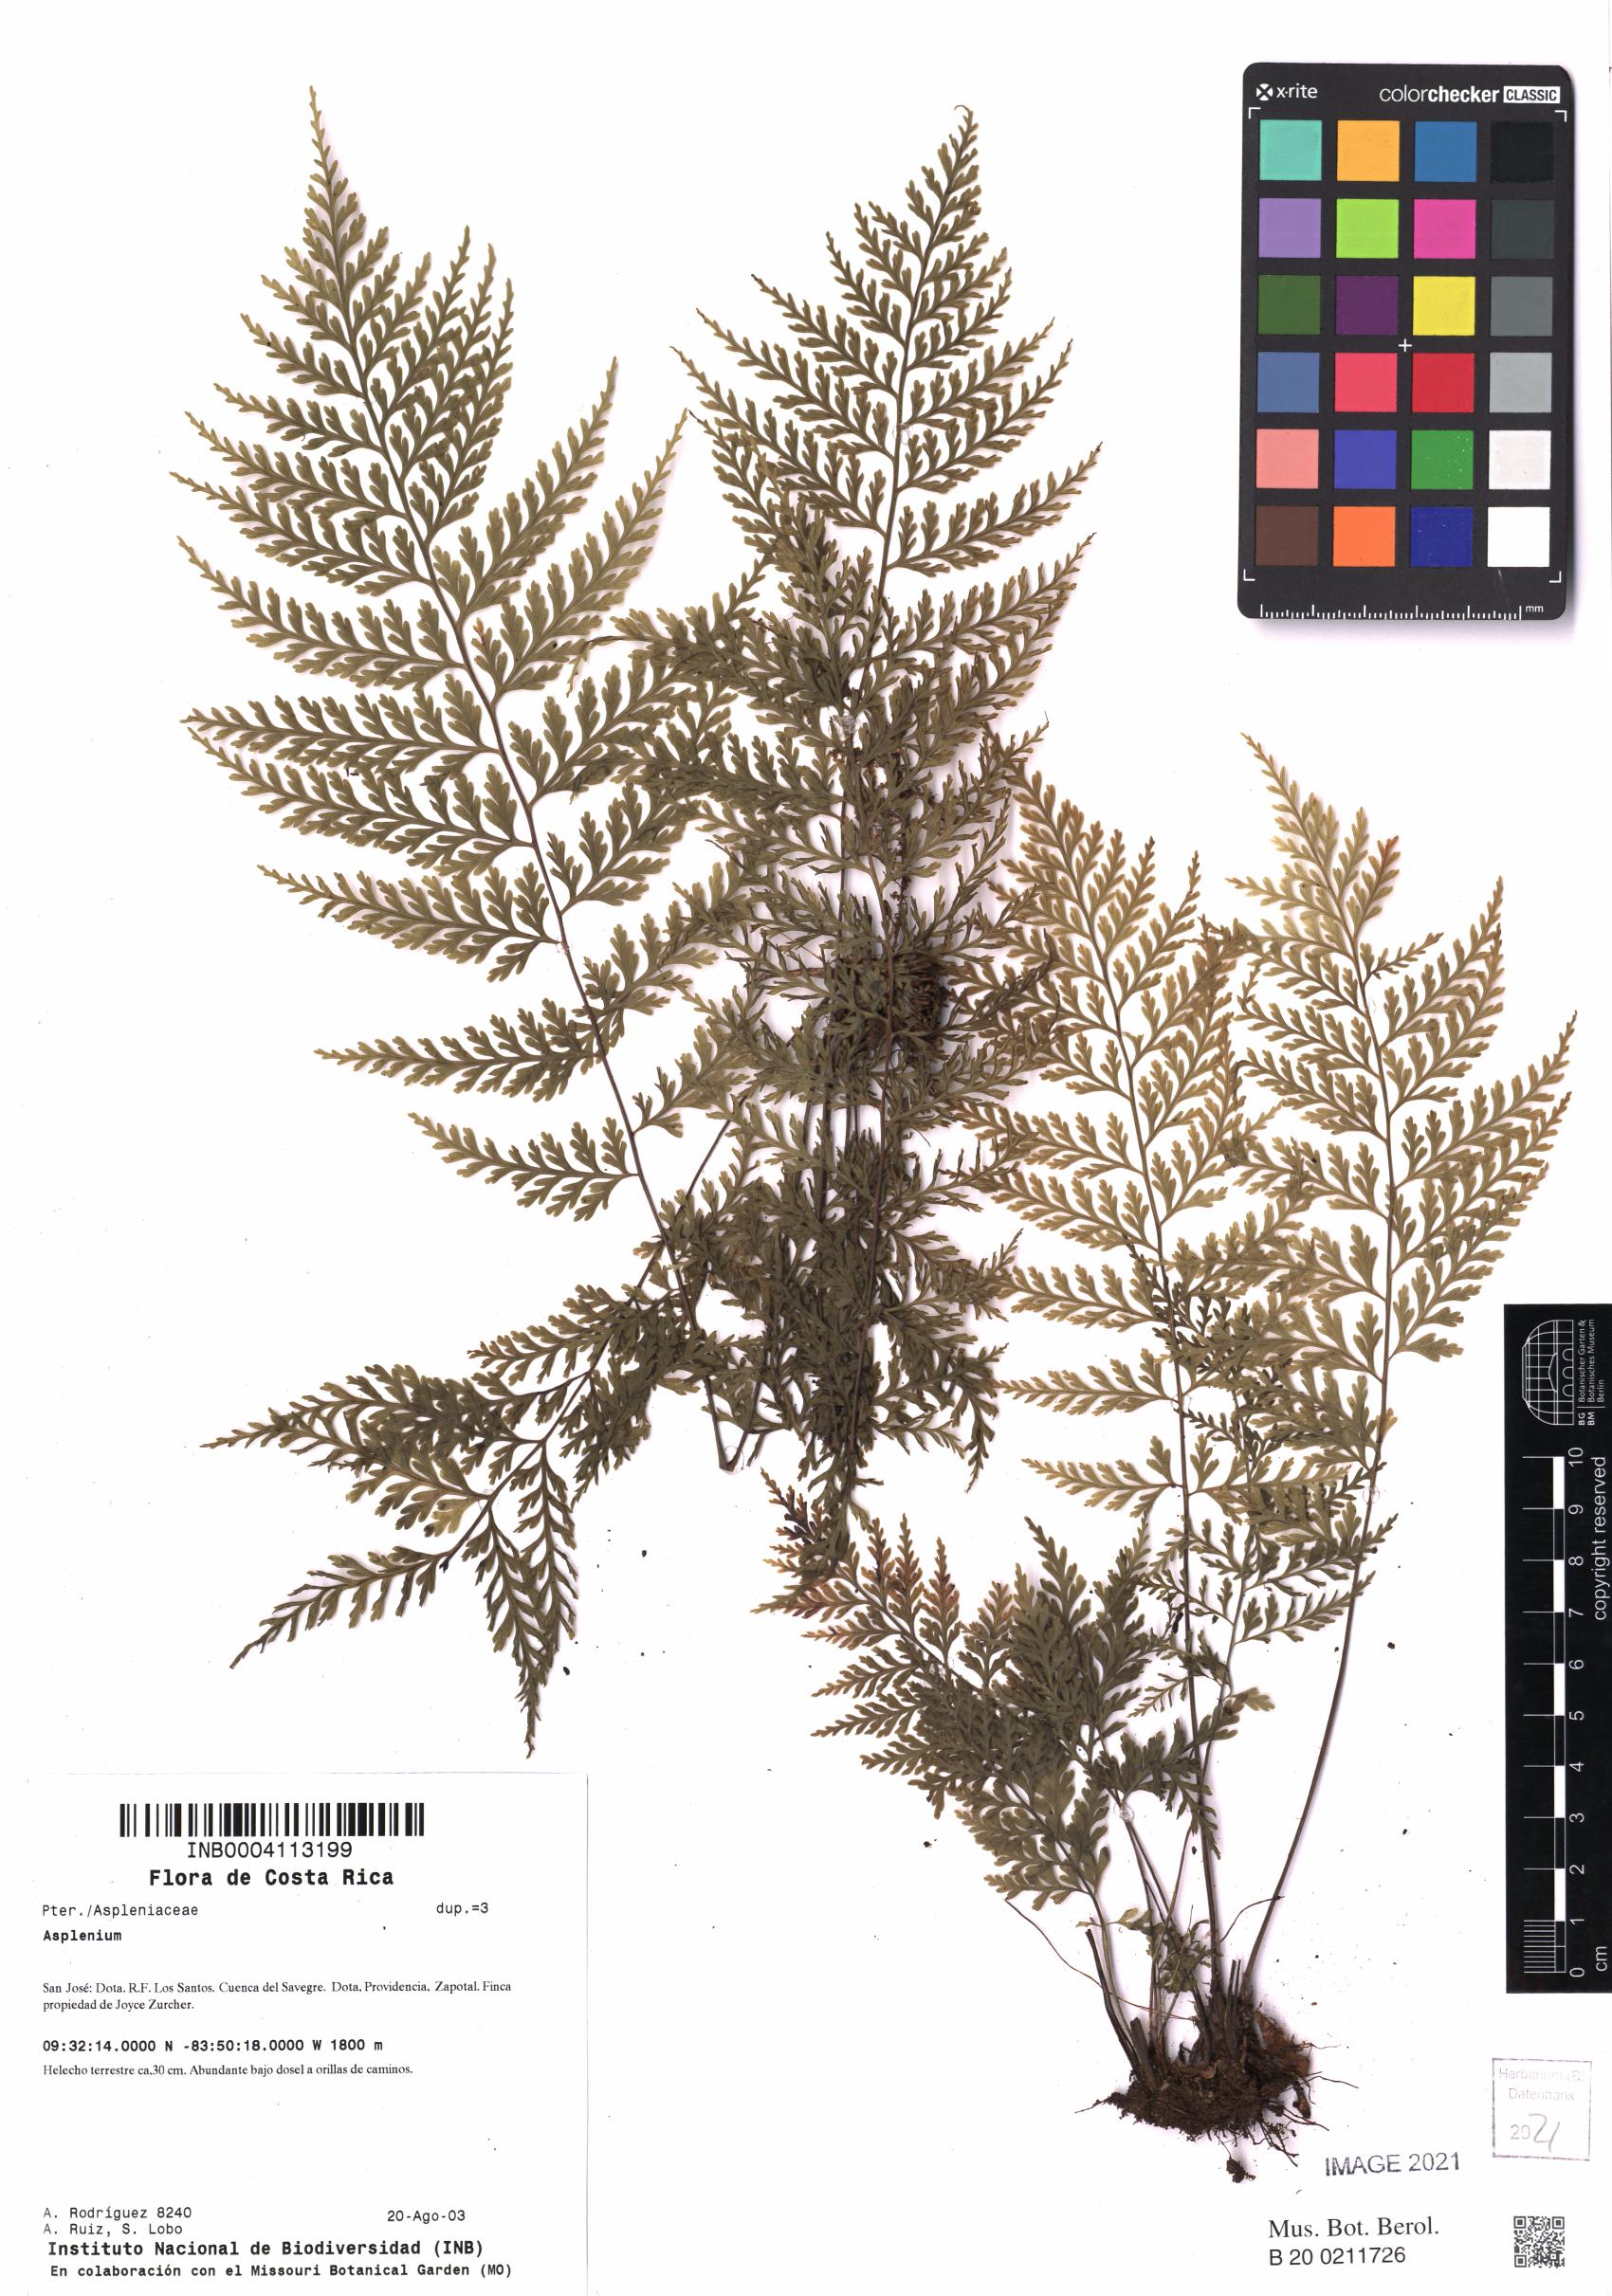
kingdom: Plantae
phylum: Tracheophyta
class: Polypodiopsida
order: Polypodiales
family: Aspleniaceae
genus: Asplenium
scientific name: Asplenium
